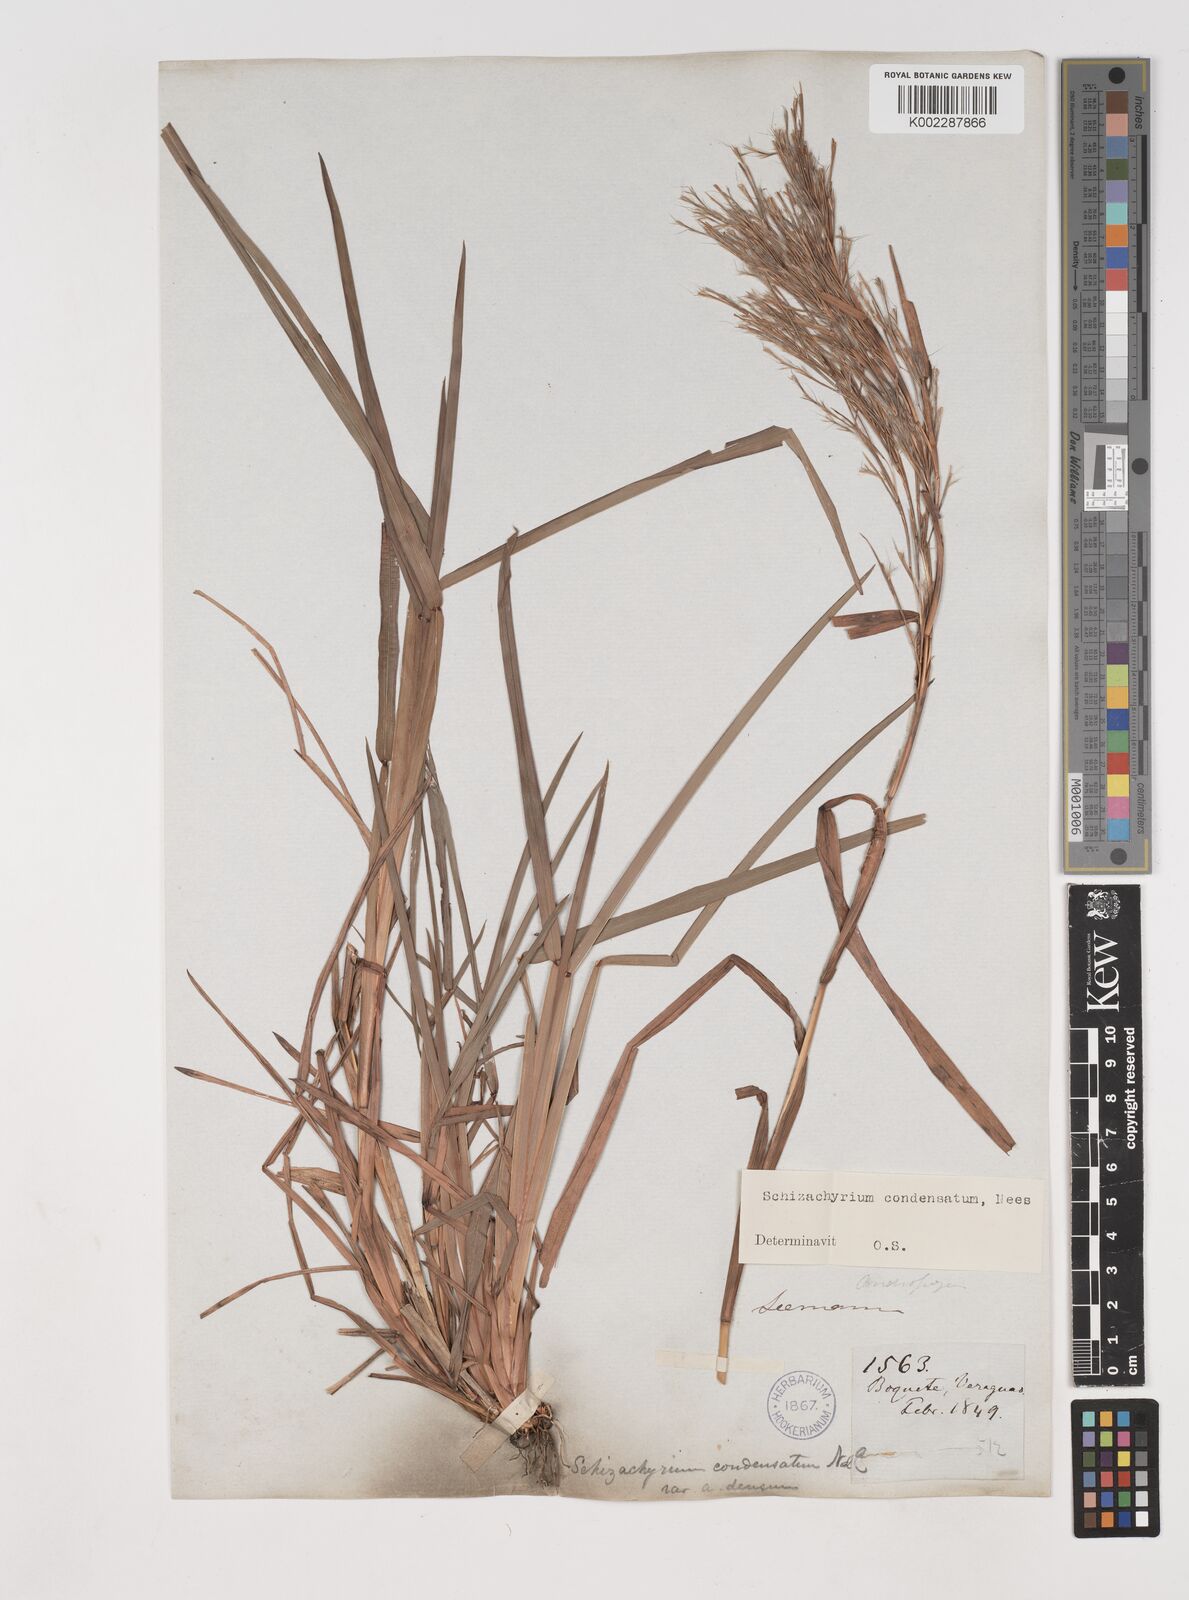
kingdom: Plantae
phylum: Tracheophyta
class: Liliopsida
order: Poales
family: Poaceae
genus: Schizachyrium
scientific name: Schizachyrium condensatum
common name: Bush beardgrass
